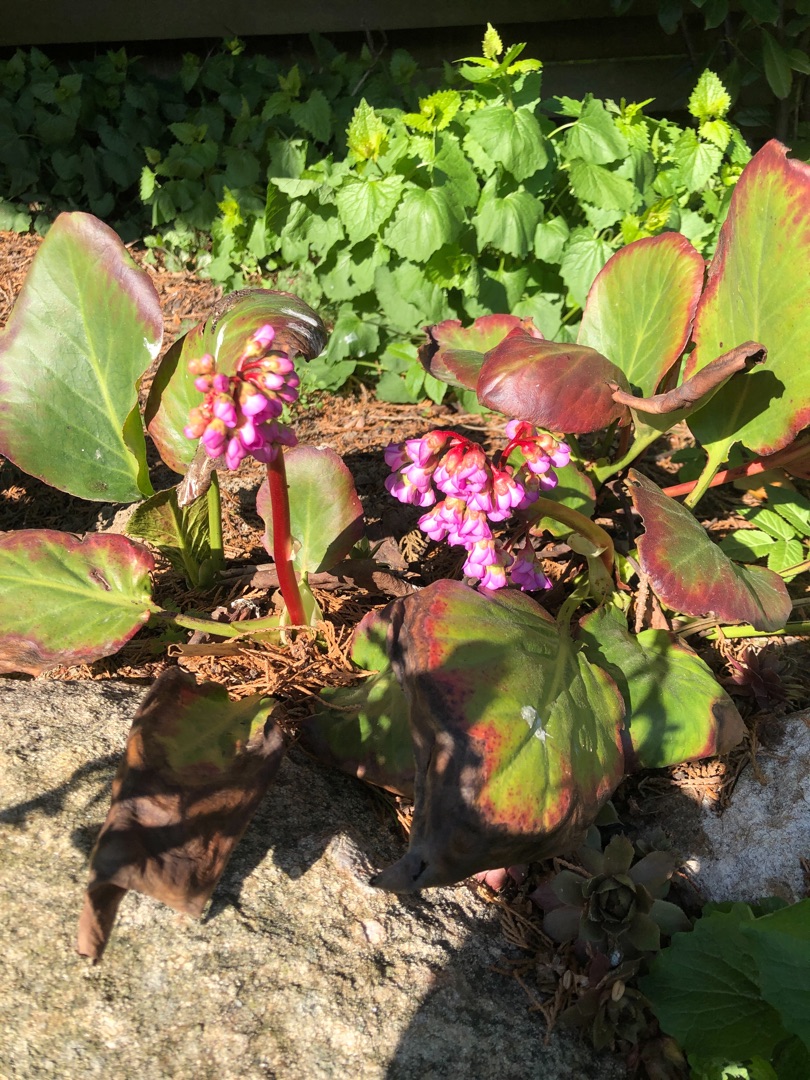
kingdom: Plantae
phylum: Tracheophyta
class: Magnoliopsida
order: Saxifragales
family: Saxifragaceae
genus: Bergenia
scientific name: Bergenia crassifolia
